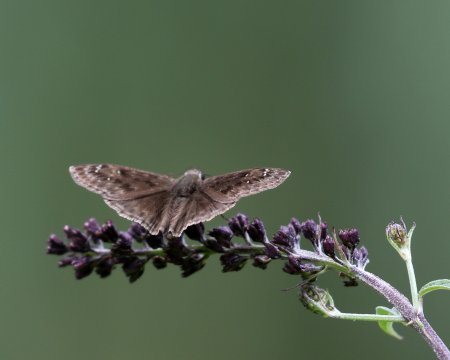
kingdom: Animalia
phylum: Arthropoda
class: Insecta
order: Lepidoptera
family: Hesperiidae
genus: Gesta
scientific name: Gesta
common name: Horace's Duskywing
